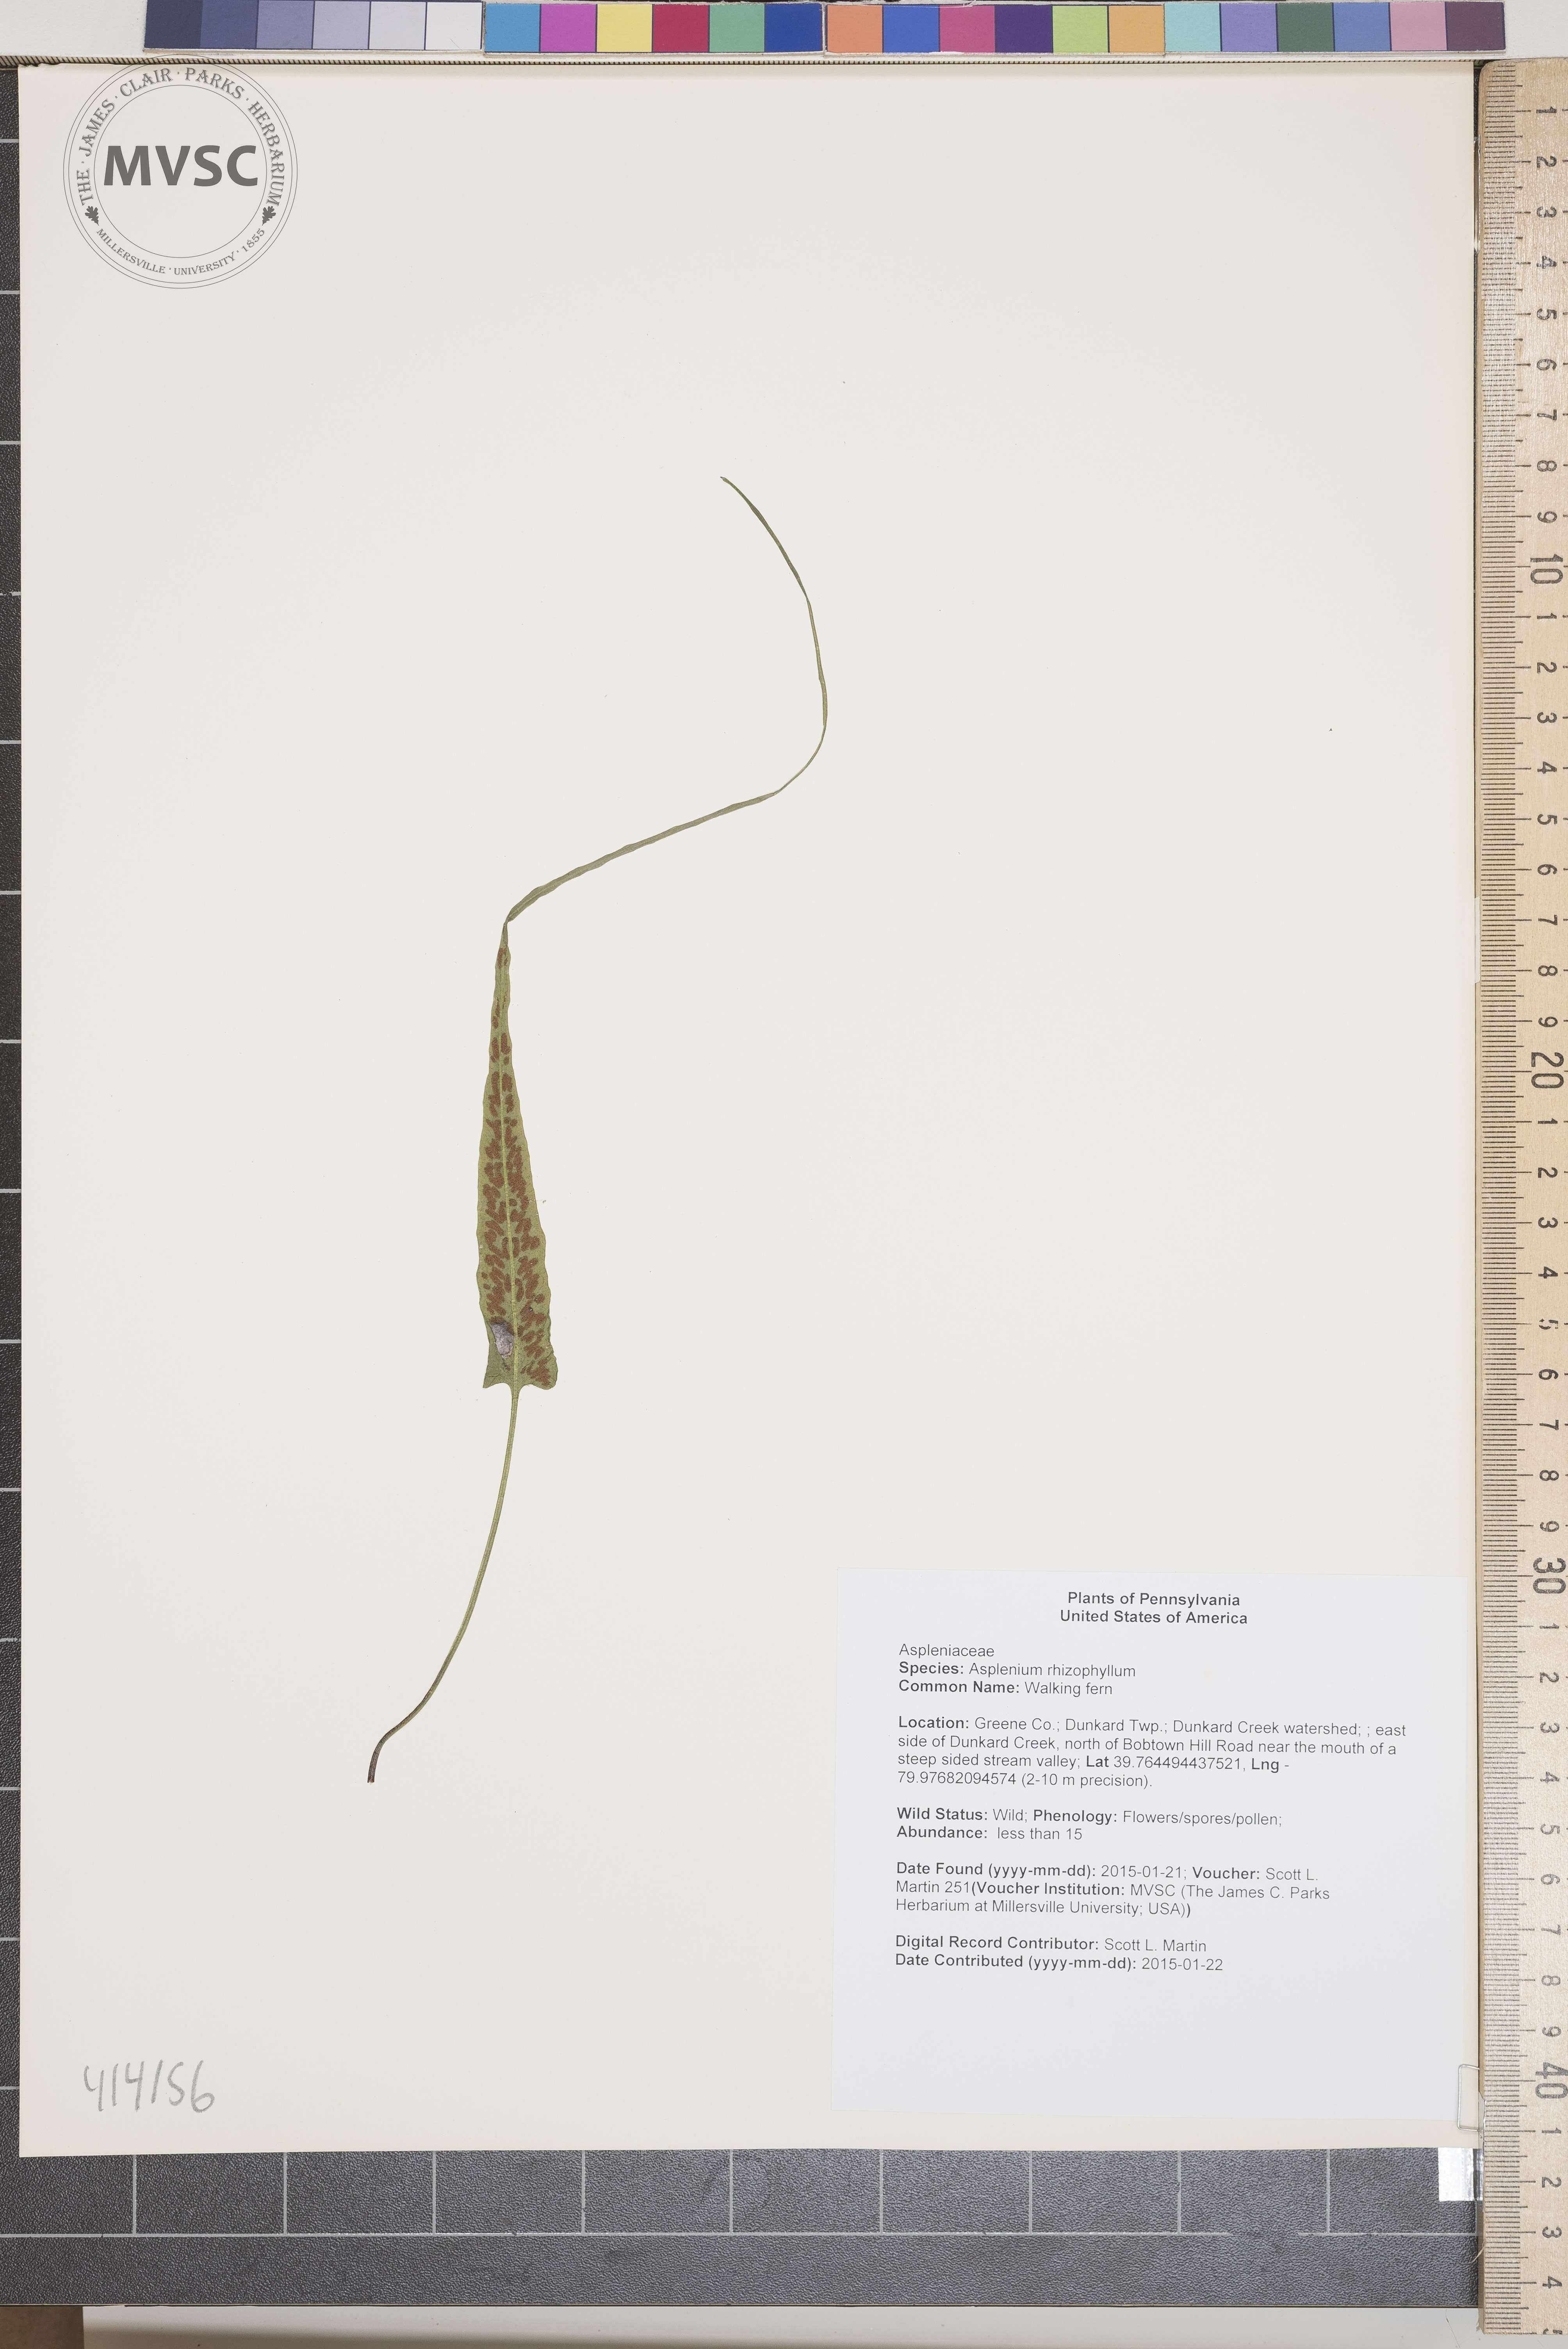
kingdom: Plantae
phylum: Tracheophyta
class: Polypodiopsida
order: Polypodiales
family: Aspleniaceae
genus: Asplenium
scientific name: Asplenium rhizophyllum
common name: Walking fern
